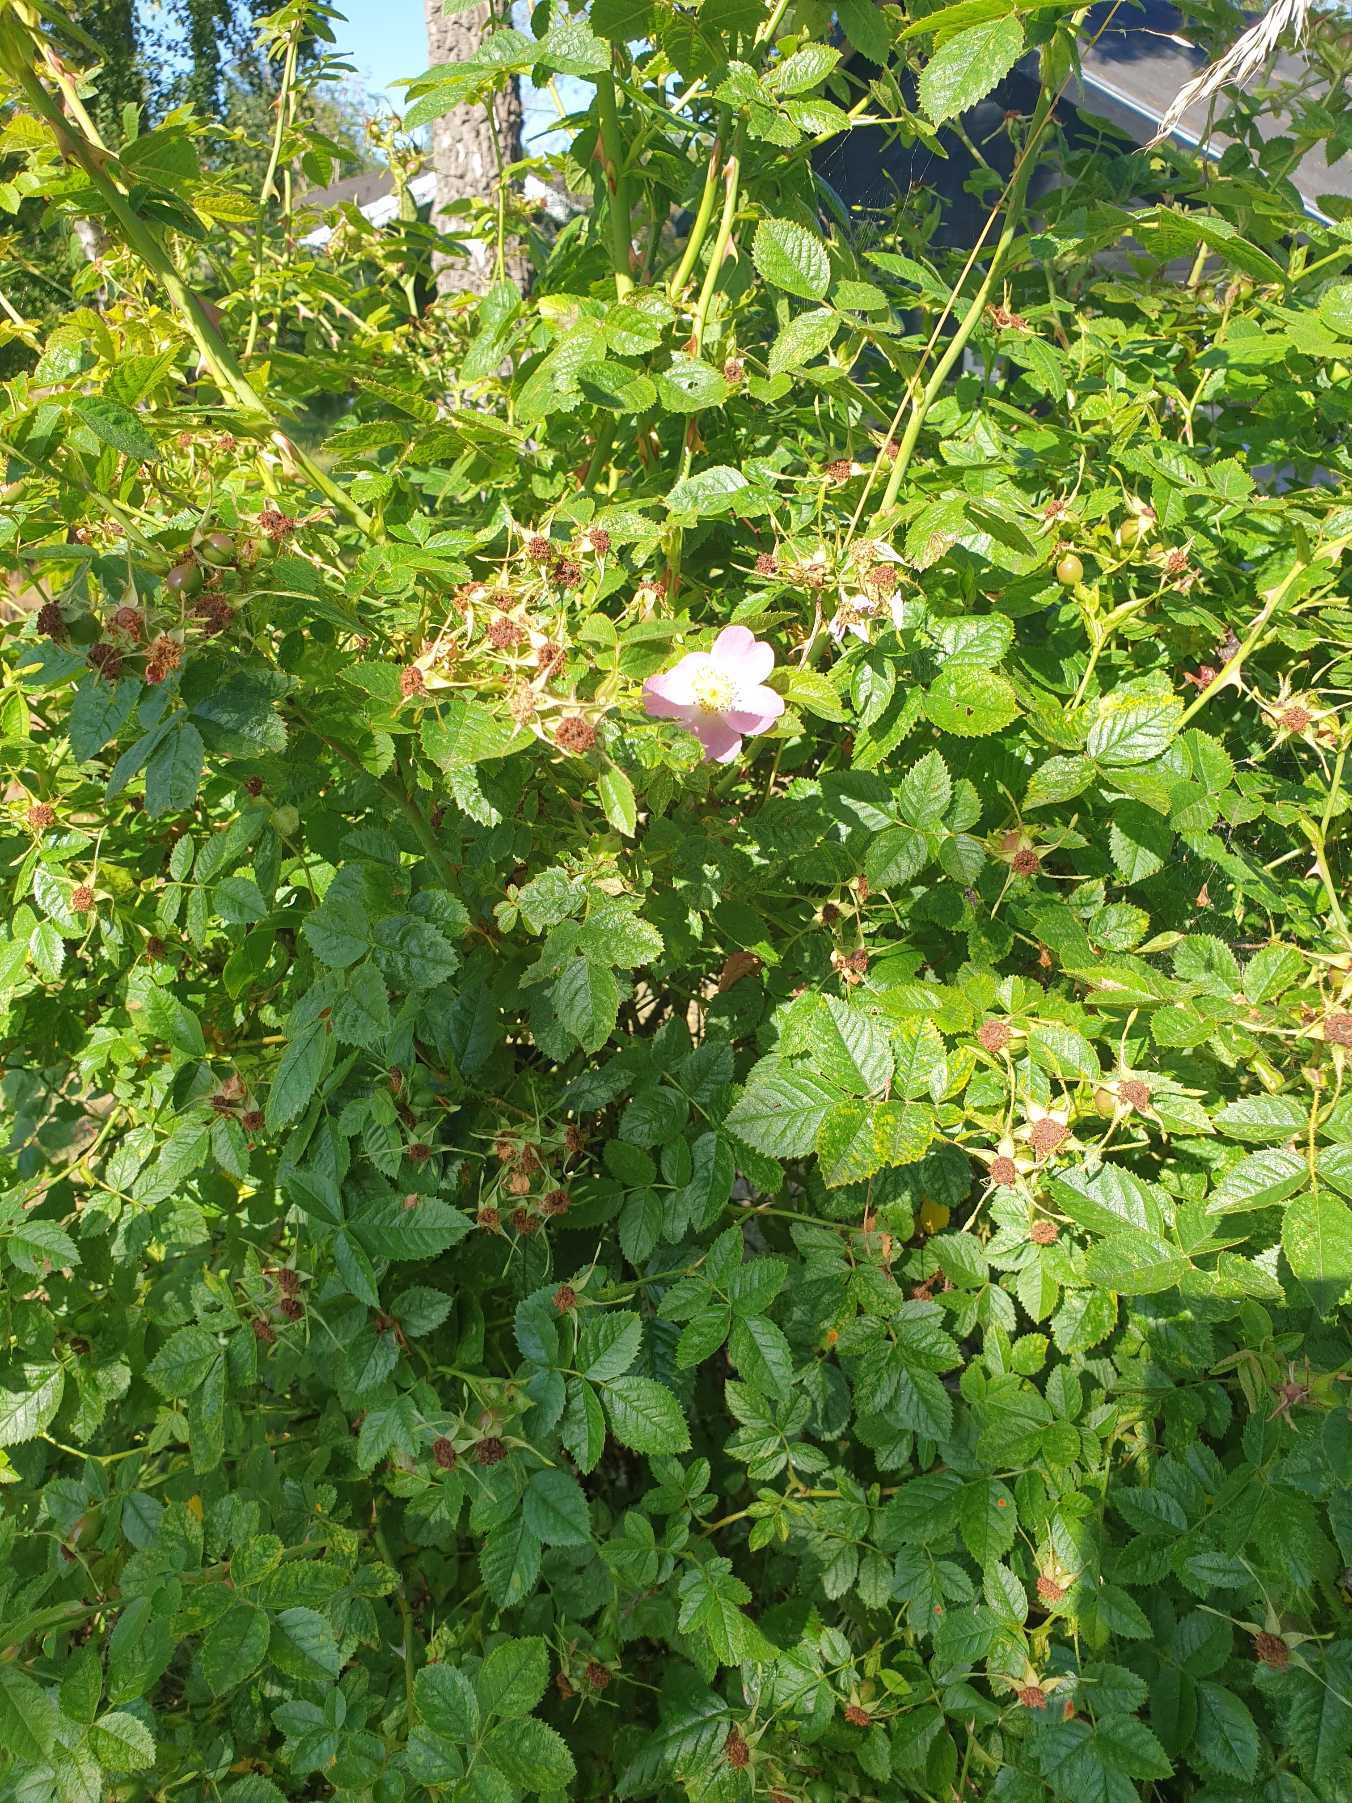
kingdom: Plantae
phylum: Tracheophyta
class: Magnoliopsida
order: Rosales
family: Rosaceae
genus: Rosa
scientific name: Rosa rubiginosa
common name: Æble-rose
